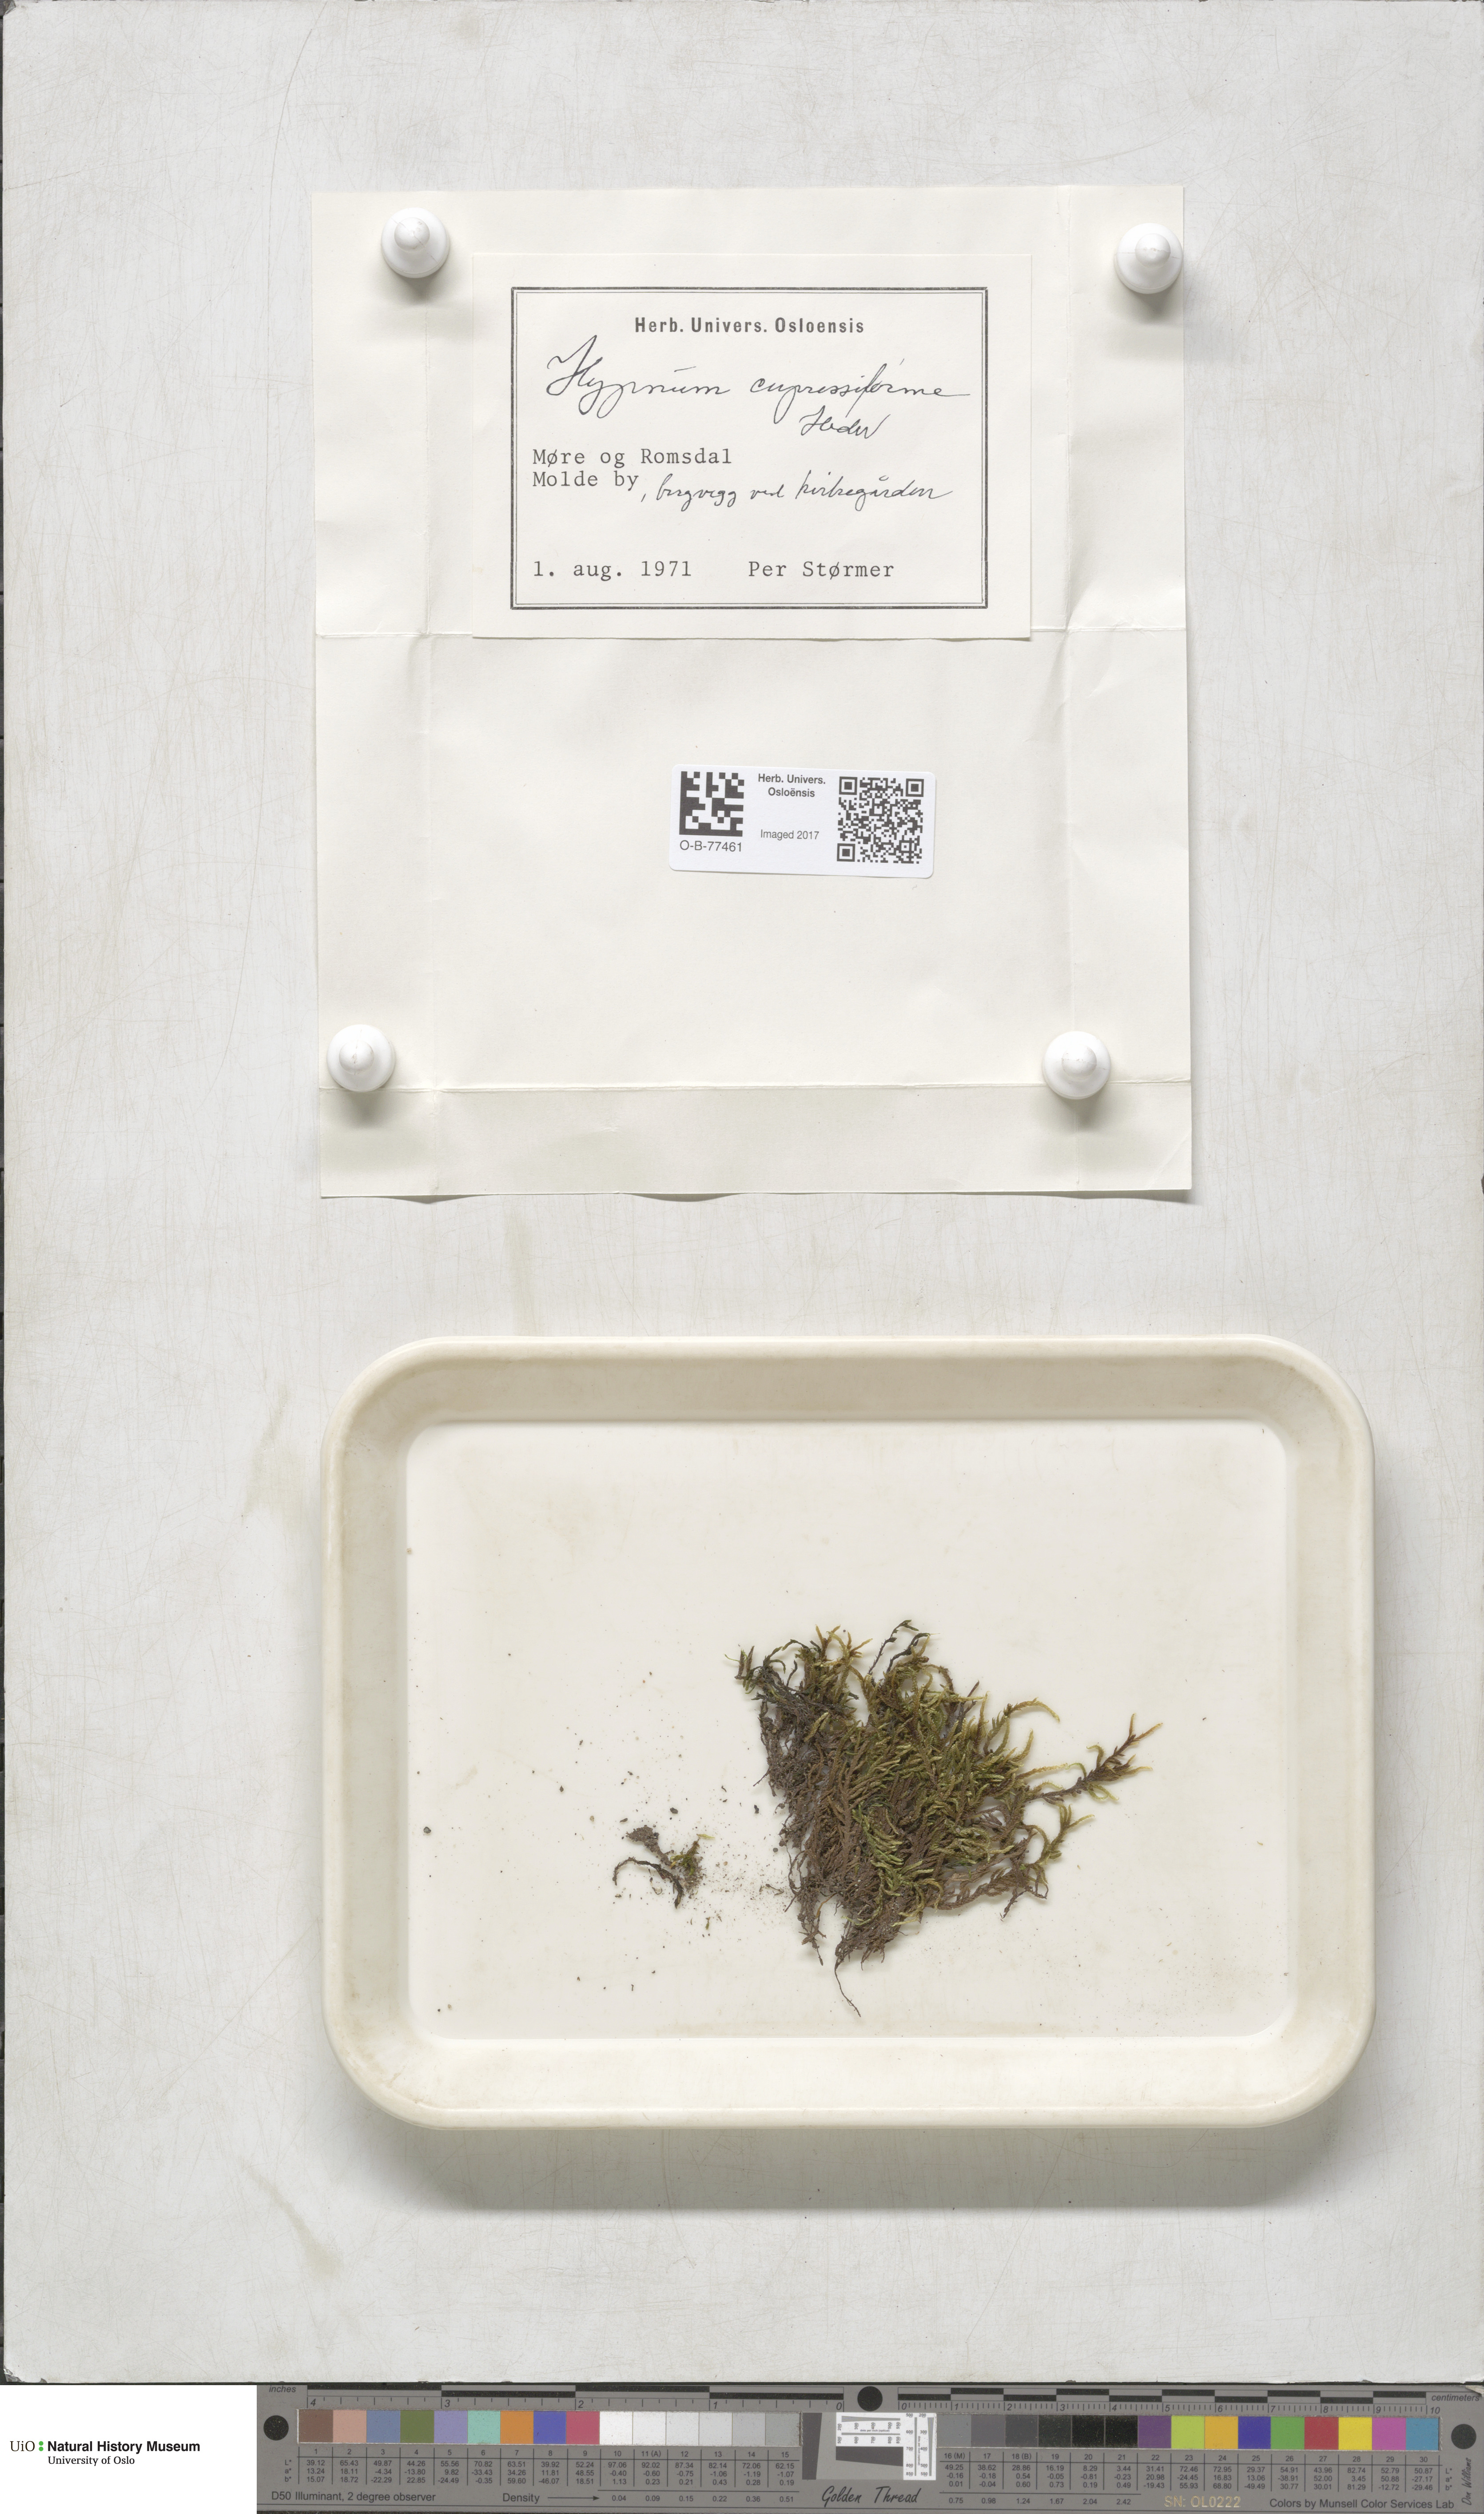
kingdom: Plantae
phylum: Bryophyta
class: Bryopsida
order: Hypnales
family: Hypnaceae
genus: Hypnum
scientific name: Hypnum cupressiforme
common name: Cypress-leaved plait-moss
